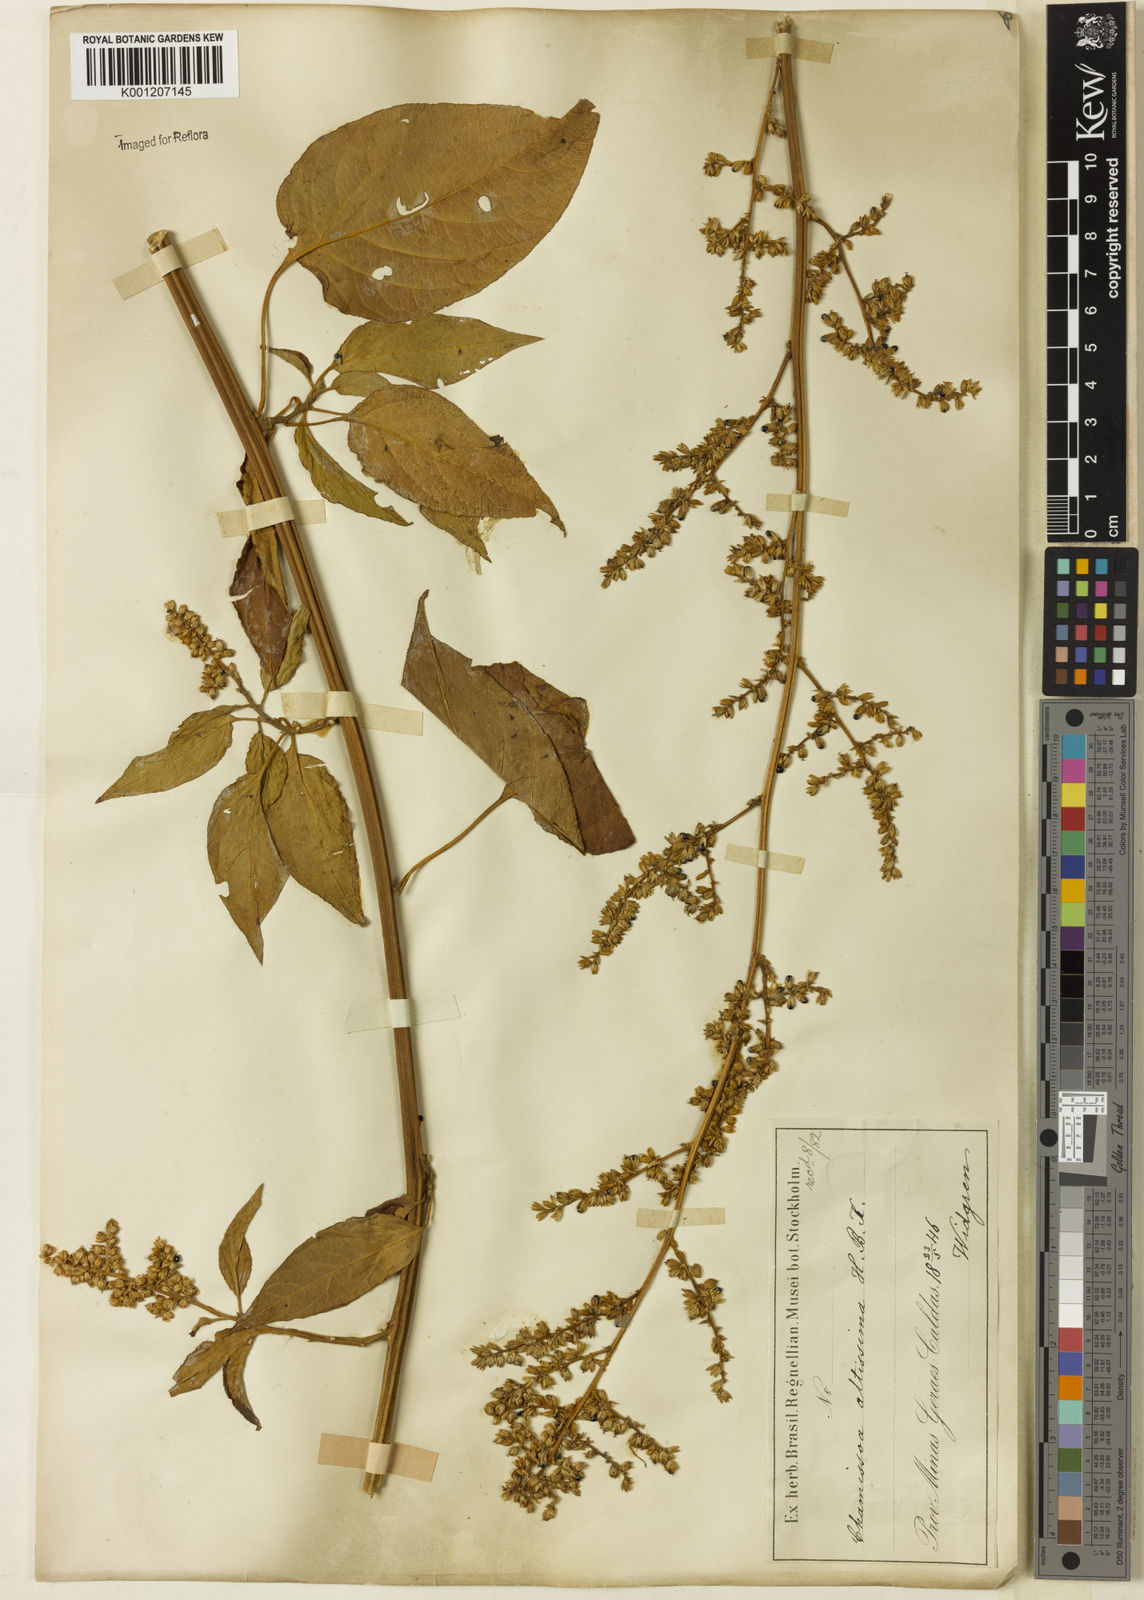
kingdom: Plantae
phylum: Tracheophyta
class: Magnoliopsida
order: Caryophyllales
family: Amaranthaceae
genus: Chamissoa
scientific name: Chamissoa altissima
